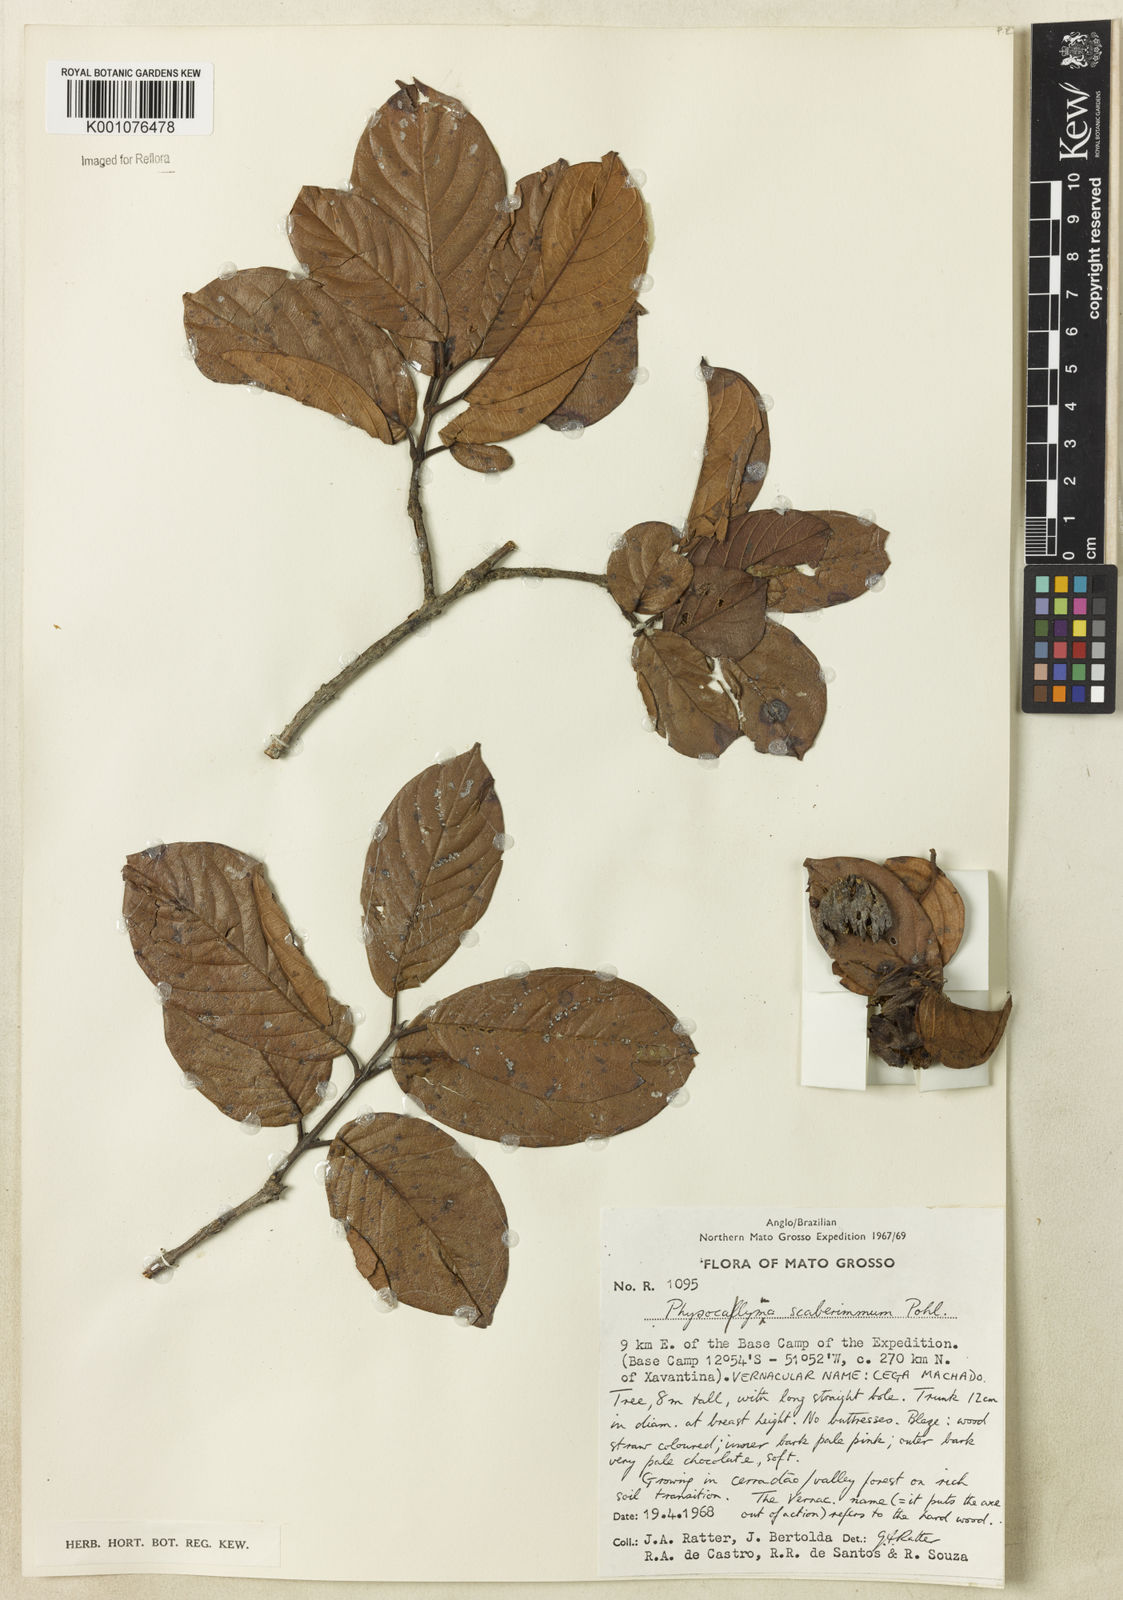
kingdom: Plantae
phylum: Tracheophyta
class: Magnoliopsida
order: Myrtales
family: Lythraceae
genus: Physocalymma
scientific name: Physocalymma scaberrimum
